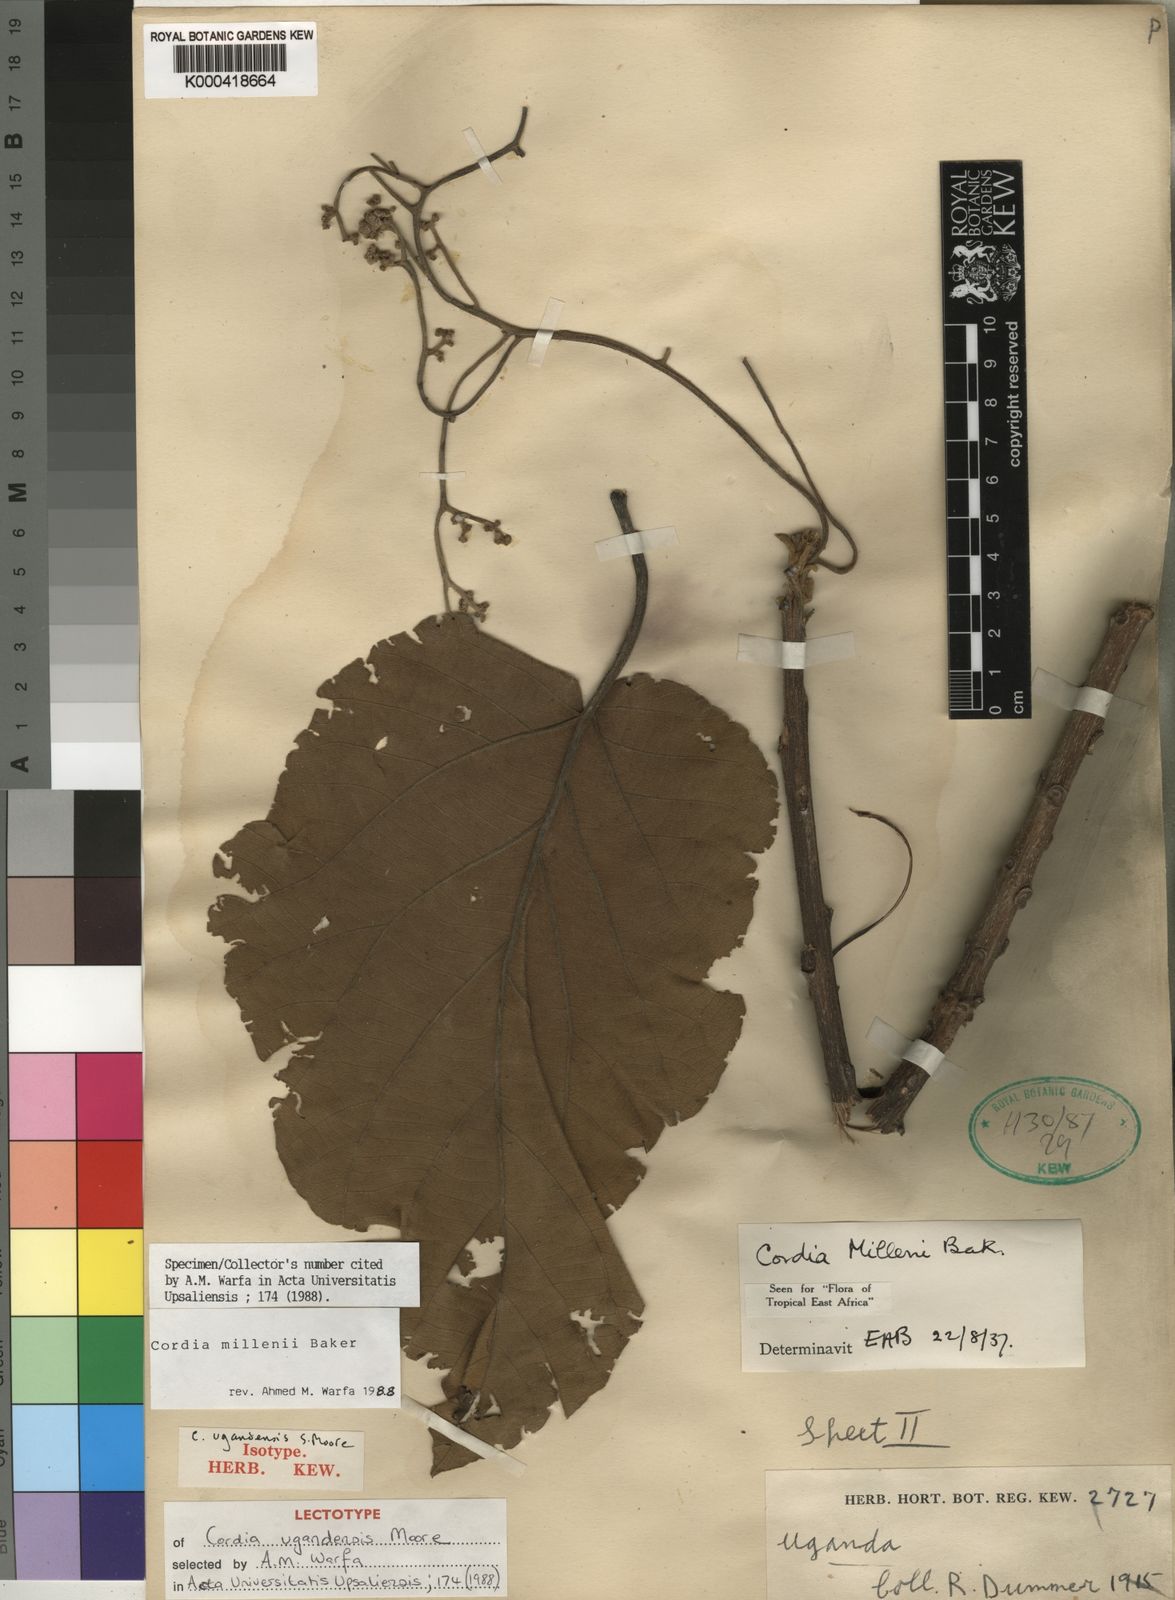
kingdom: Plantae
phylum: Tracheophyta
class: Magnoliopsida
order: Boraginales
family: Cordiaceae
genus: Cordia
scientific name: Cordia millenii
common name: Drum tree
